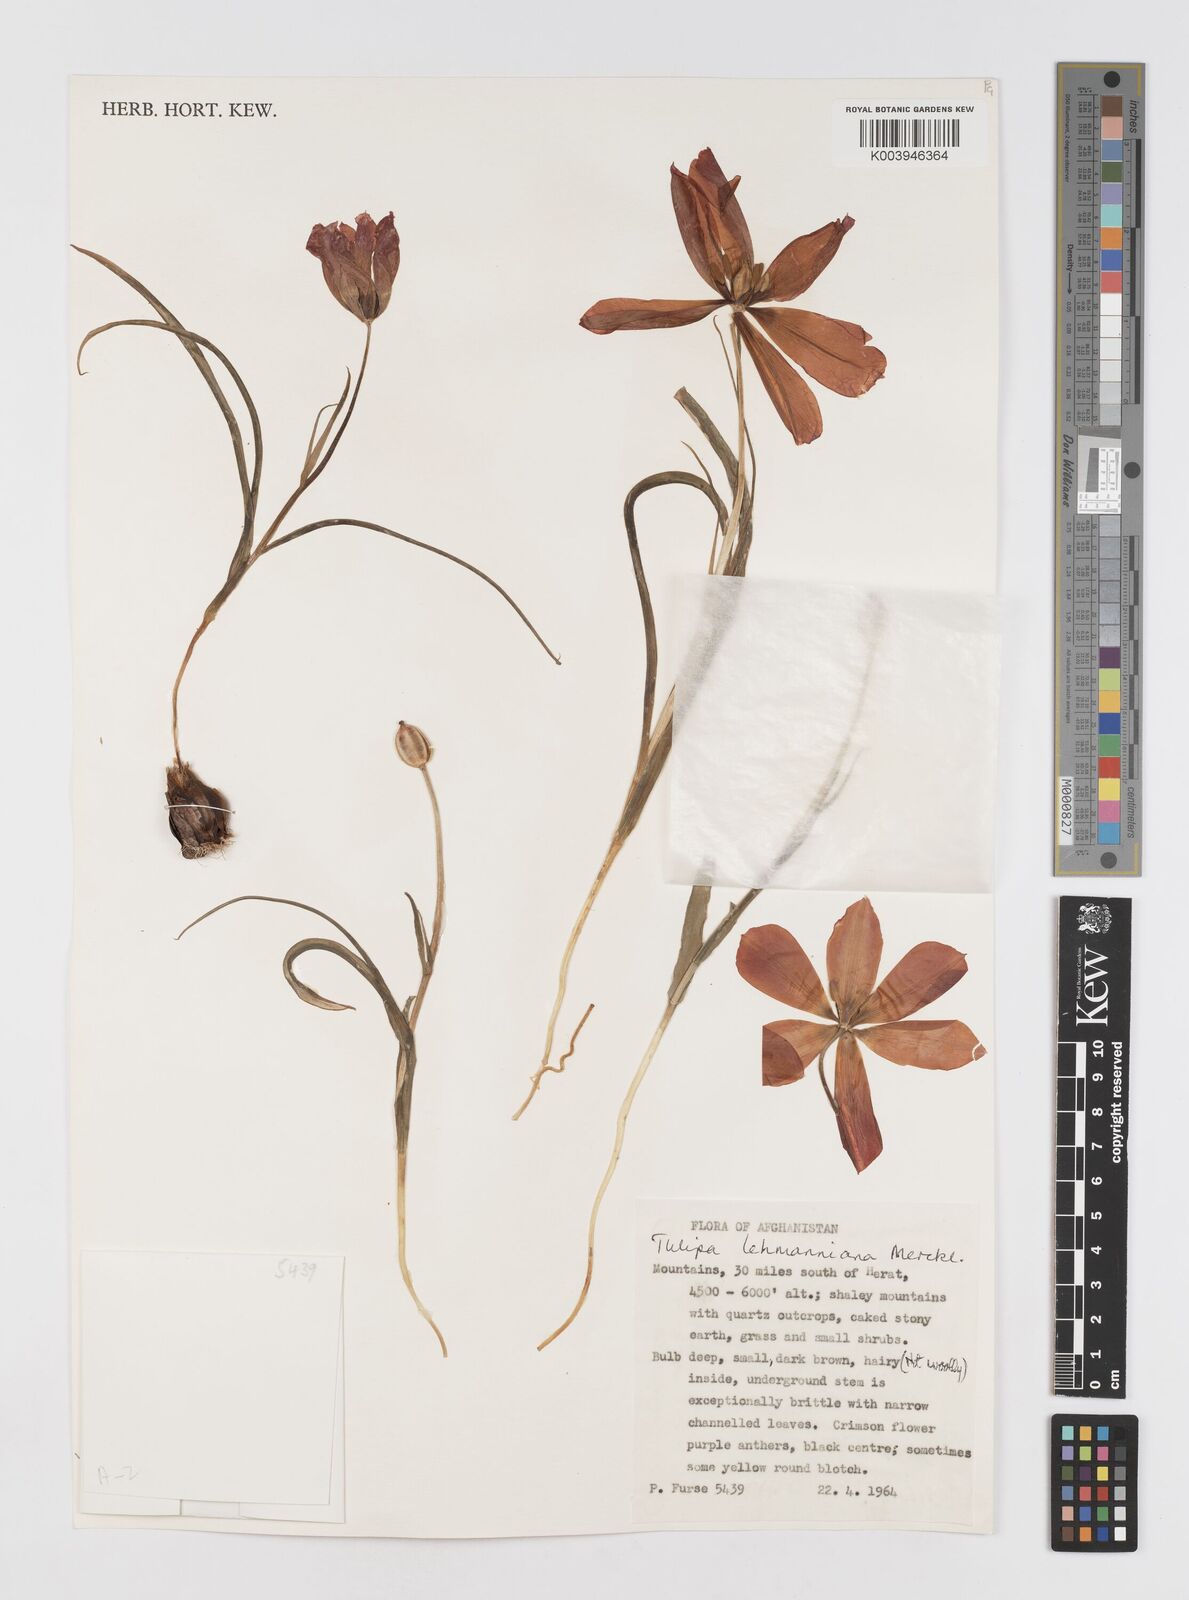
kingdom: Plantae
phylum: Tracheophyta
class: Liliopsida
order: Liliales
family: Liliaceae
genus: Tulipa
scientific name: Tulipa lehmanniana
